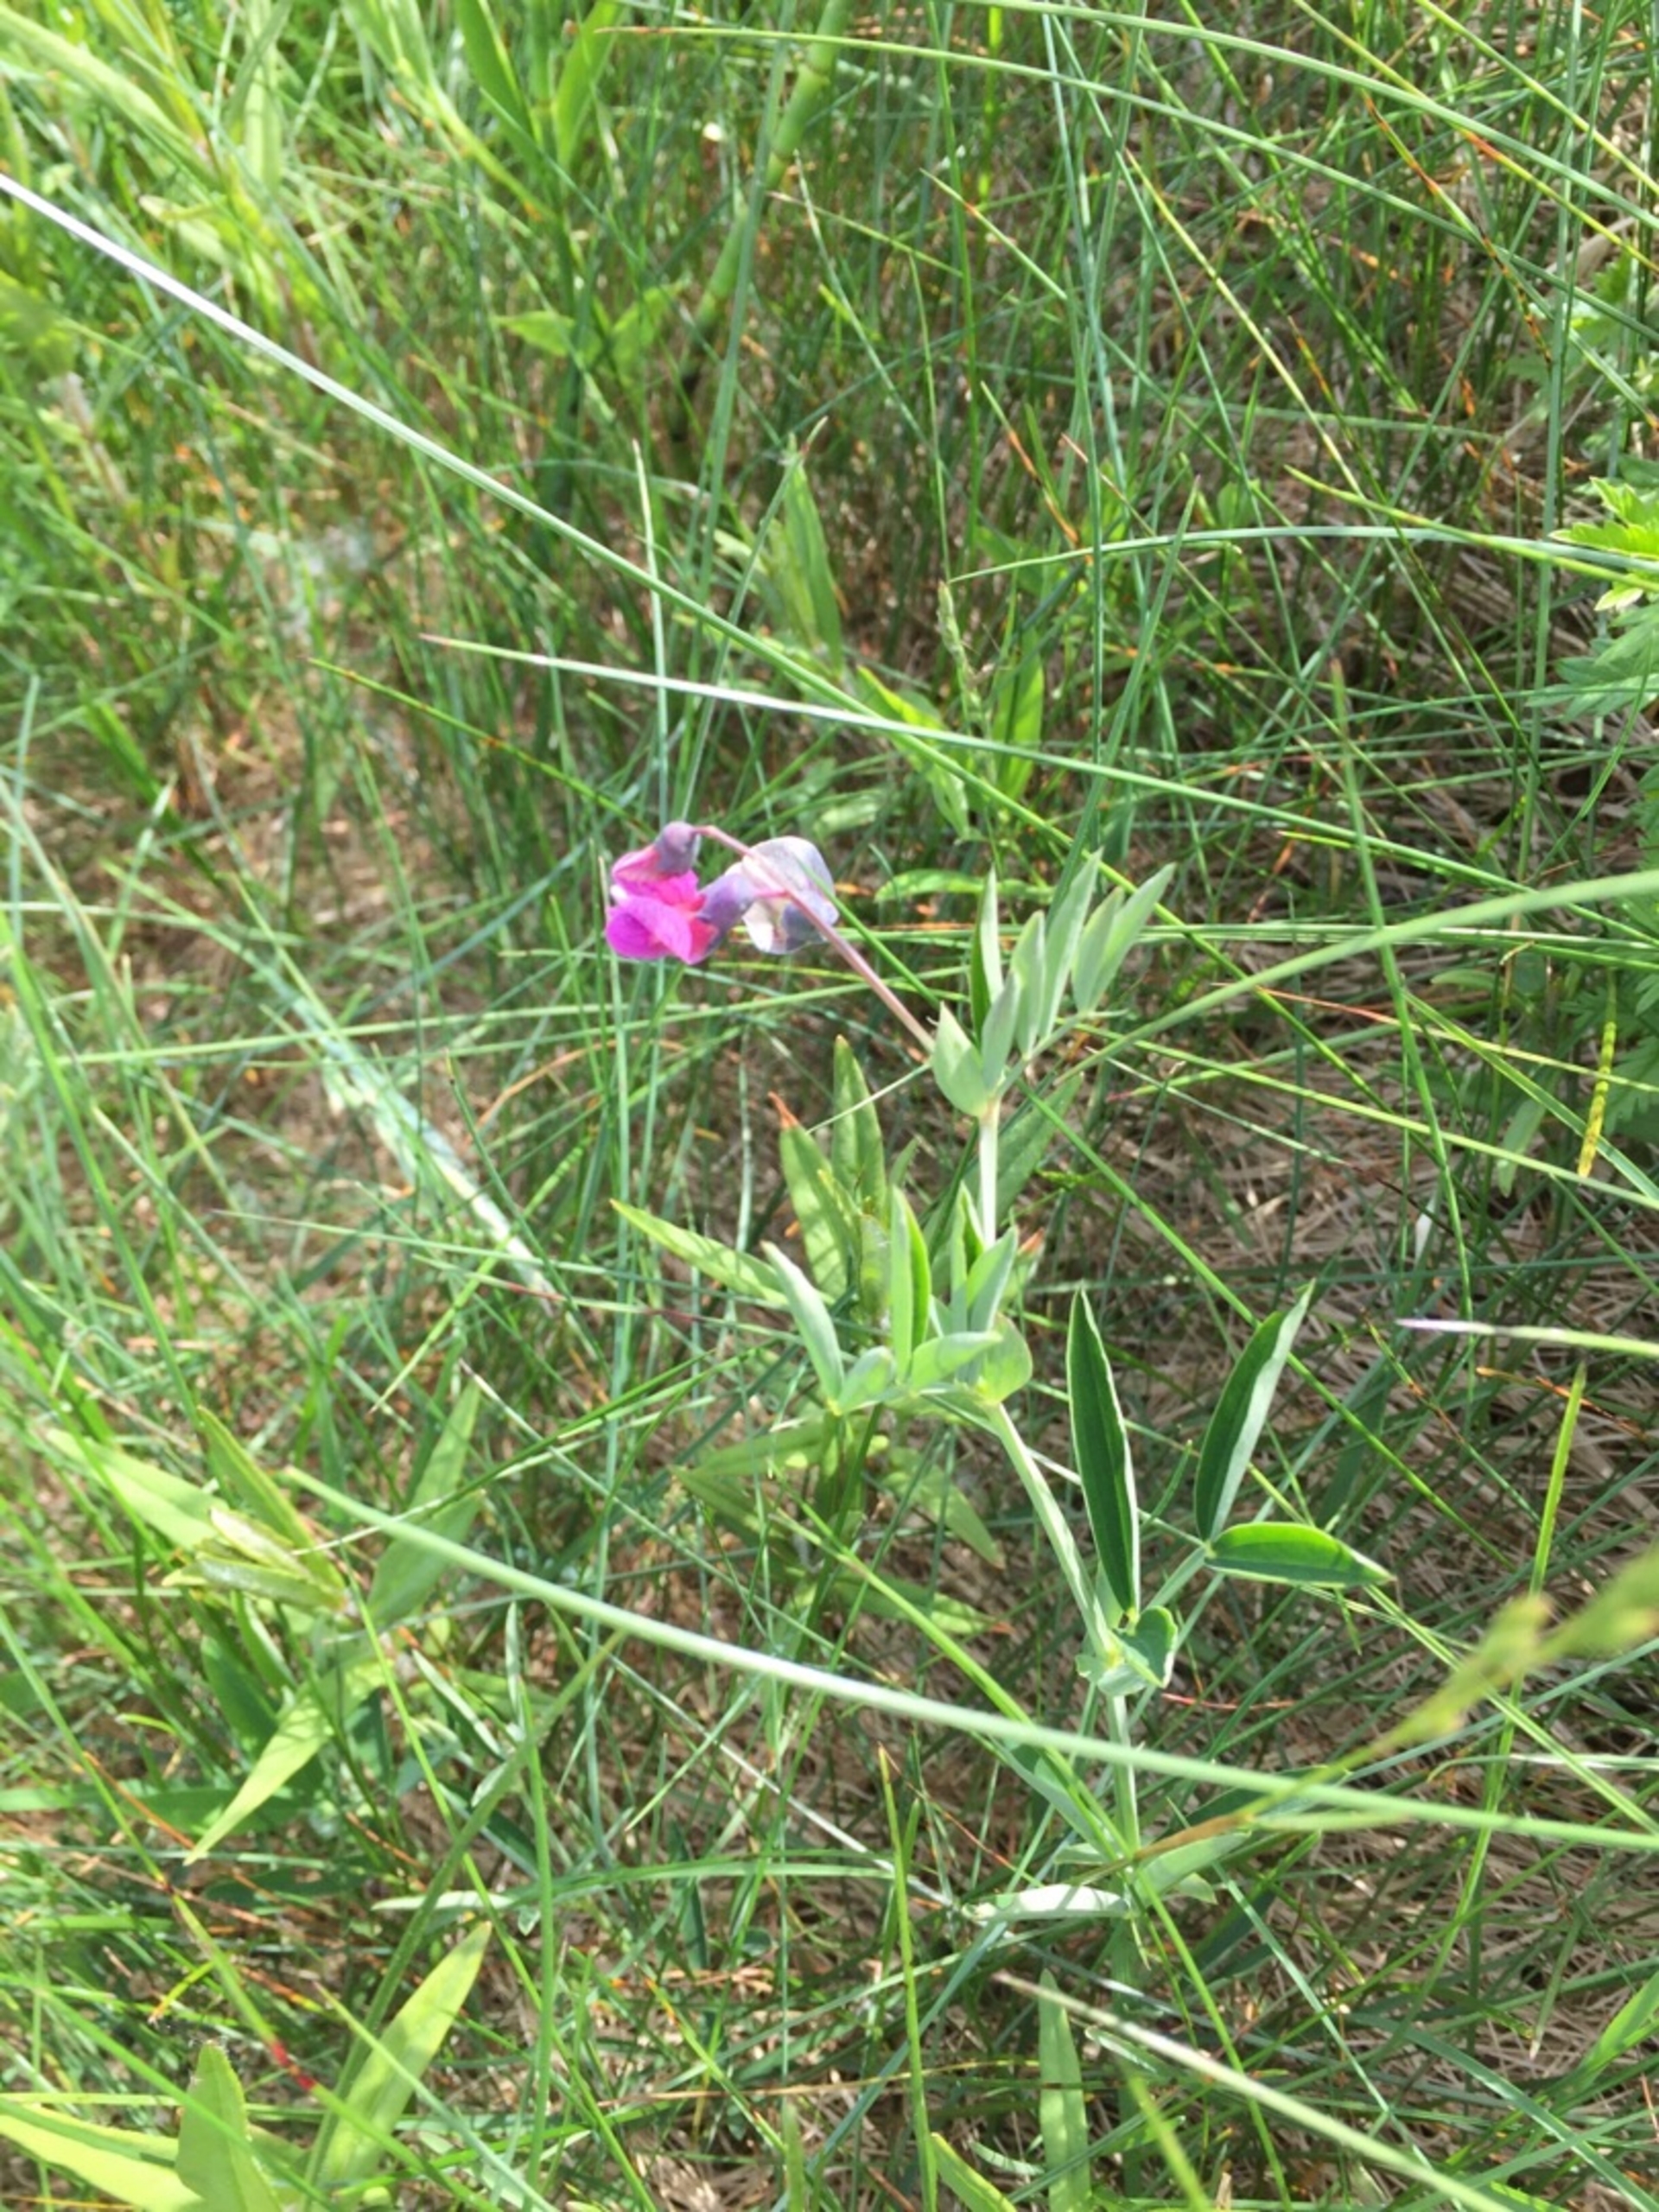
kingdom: Plantae
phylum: Tracheophyta
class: Magnoliopsida
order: Fabales
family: Fabaceae
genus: Lathyrus
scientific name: Lathyrus linifolius
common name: Krat-fladbælg
